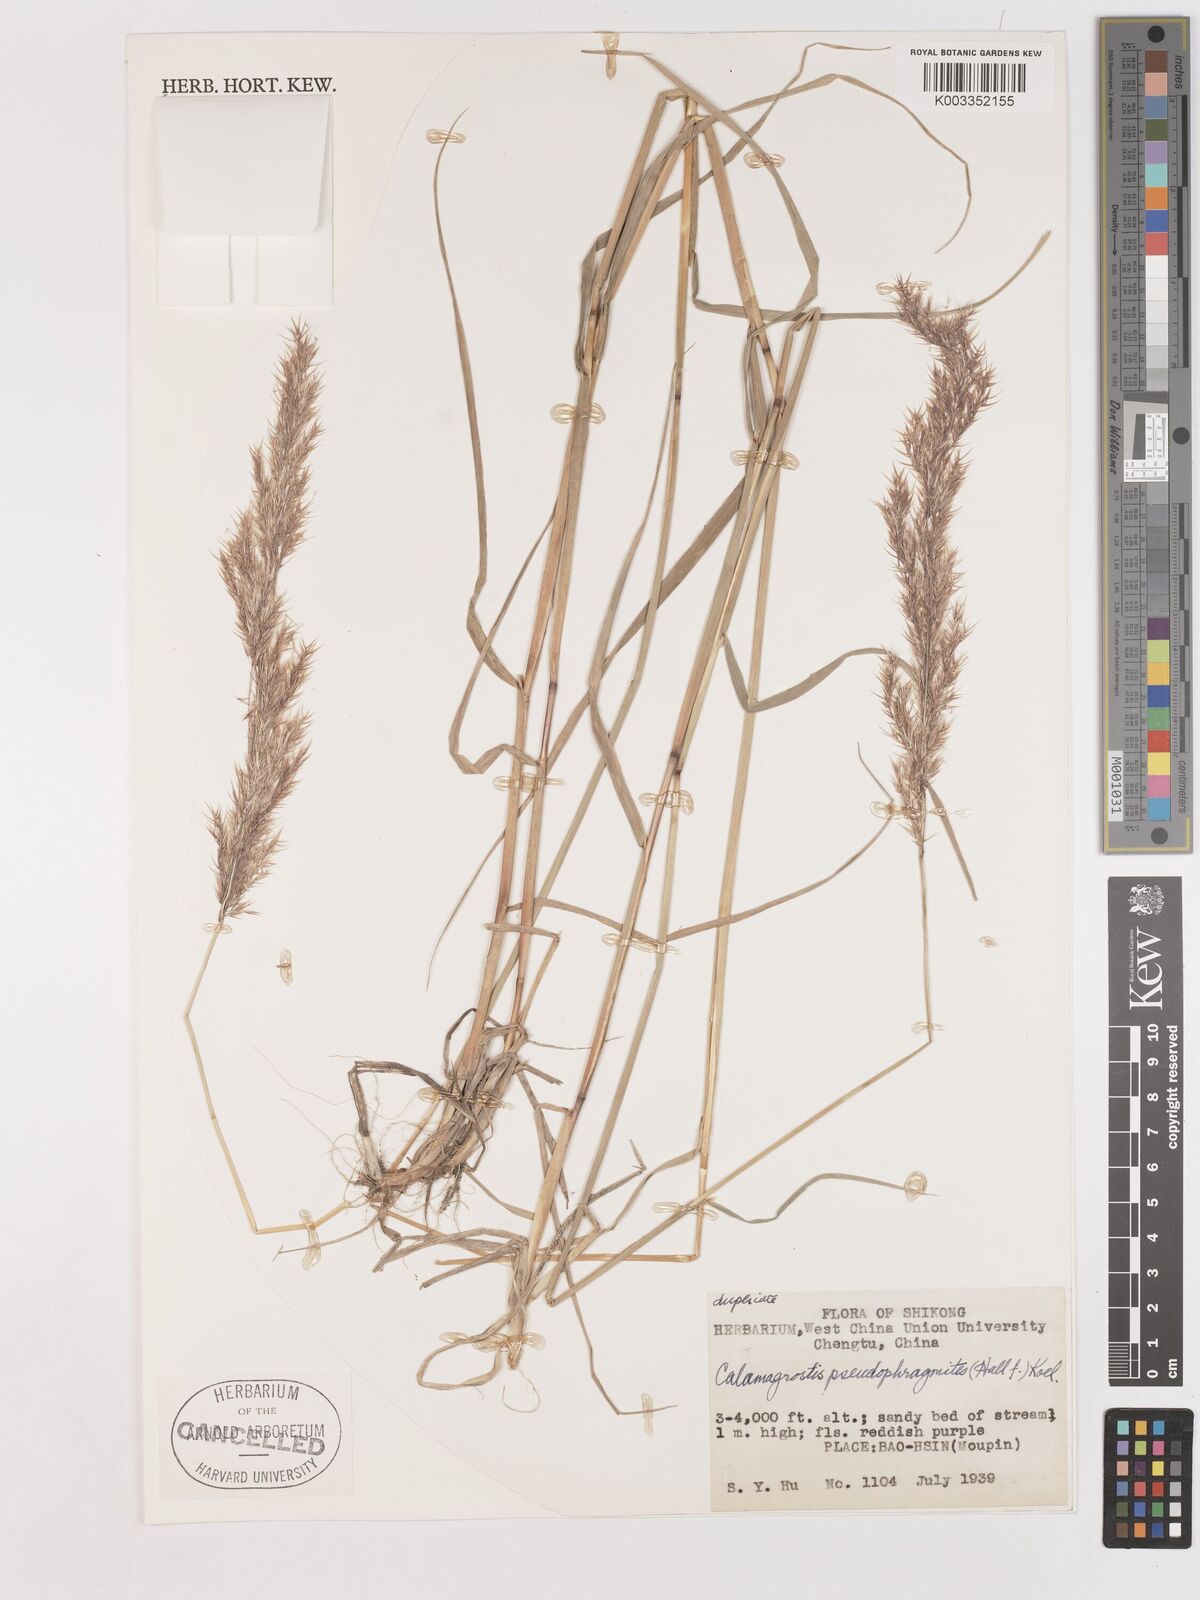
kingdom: Plantae
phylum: Tracheophyta
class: Liliopsida
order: Poales
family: Poaceae
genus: Calamagrostis
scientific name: Calamagrostis pseudophragmites
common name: Coastal small-reed
